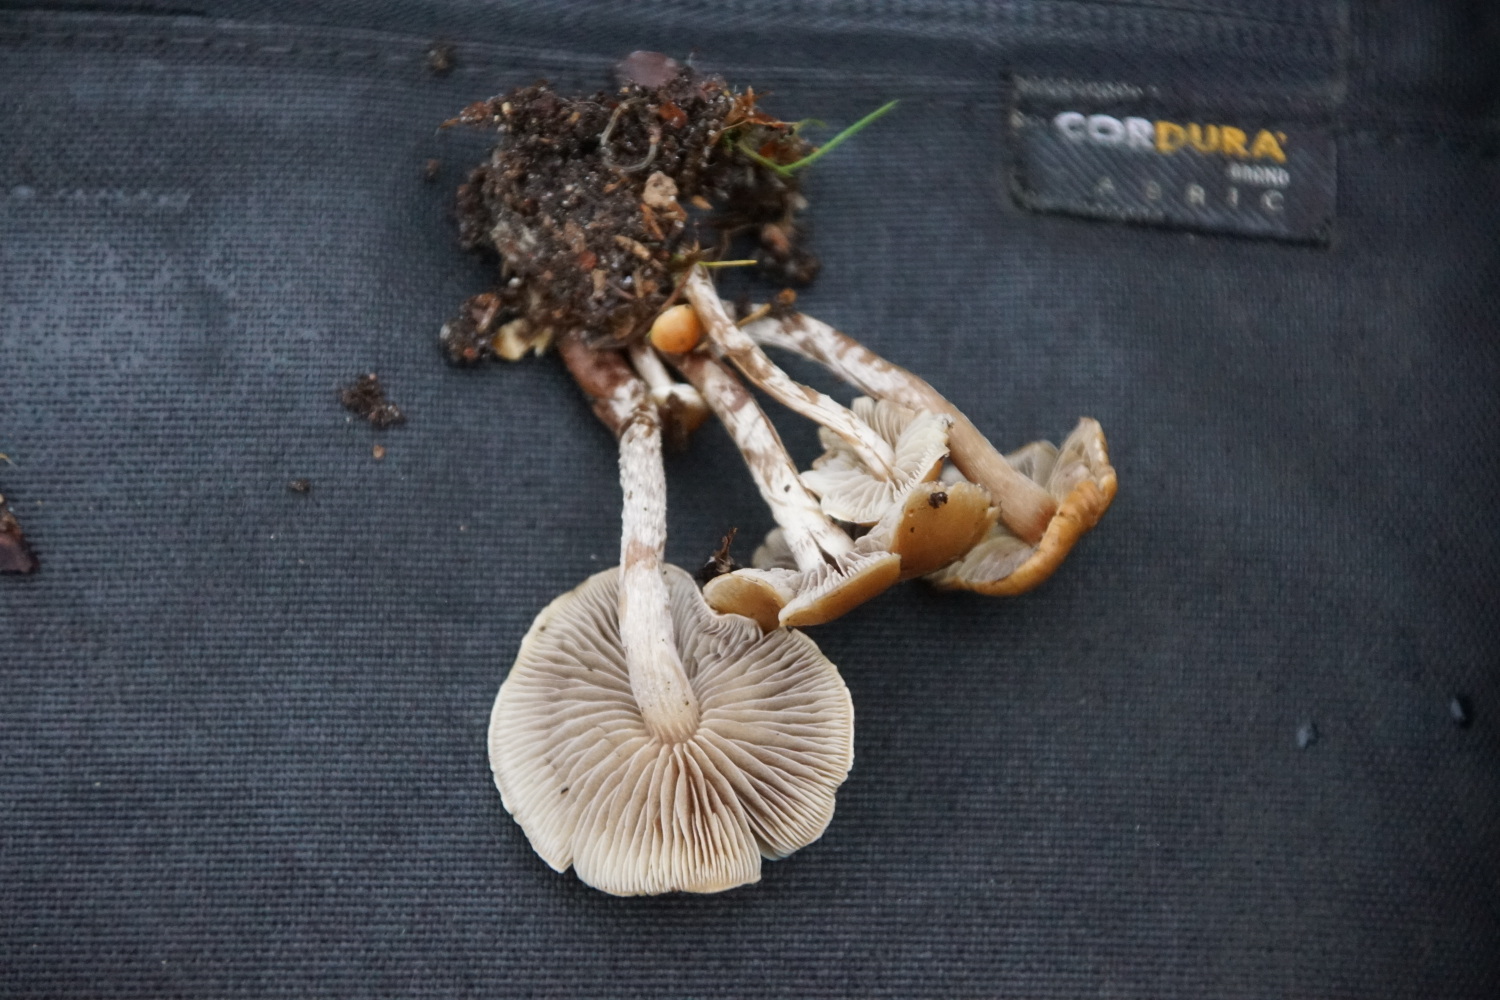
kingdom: Fungi
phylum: Basidiomycota
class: Agaricomycetes
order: Agaricales
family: Strophariaceae
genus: Hypholoma
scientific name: Hypholoma marginatum
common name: enlig svovlhat
